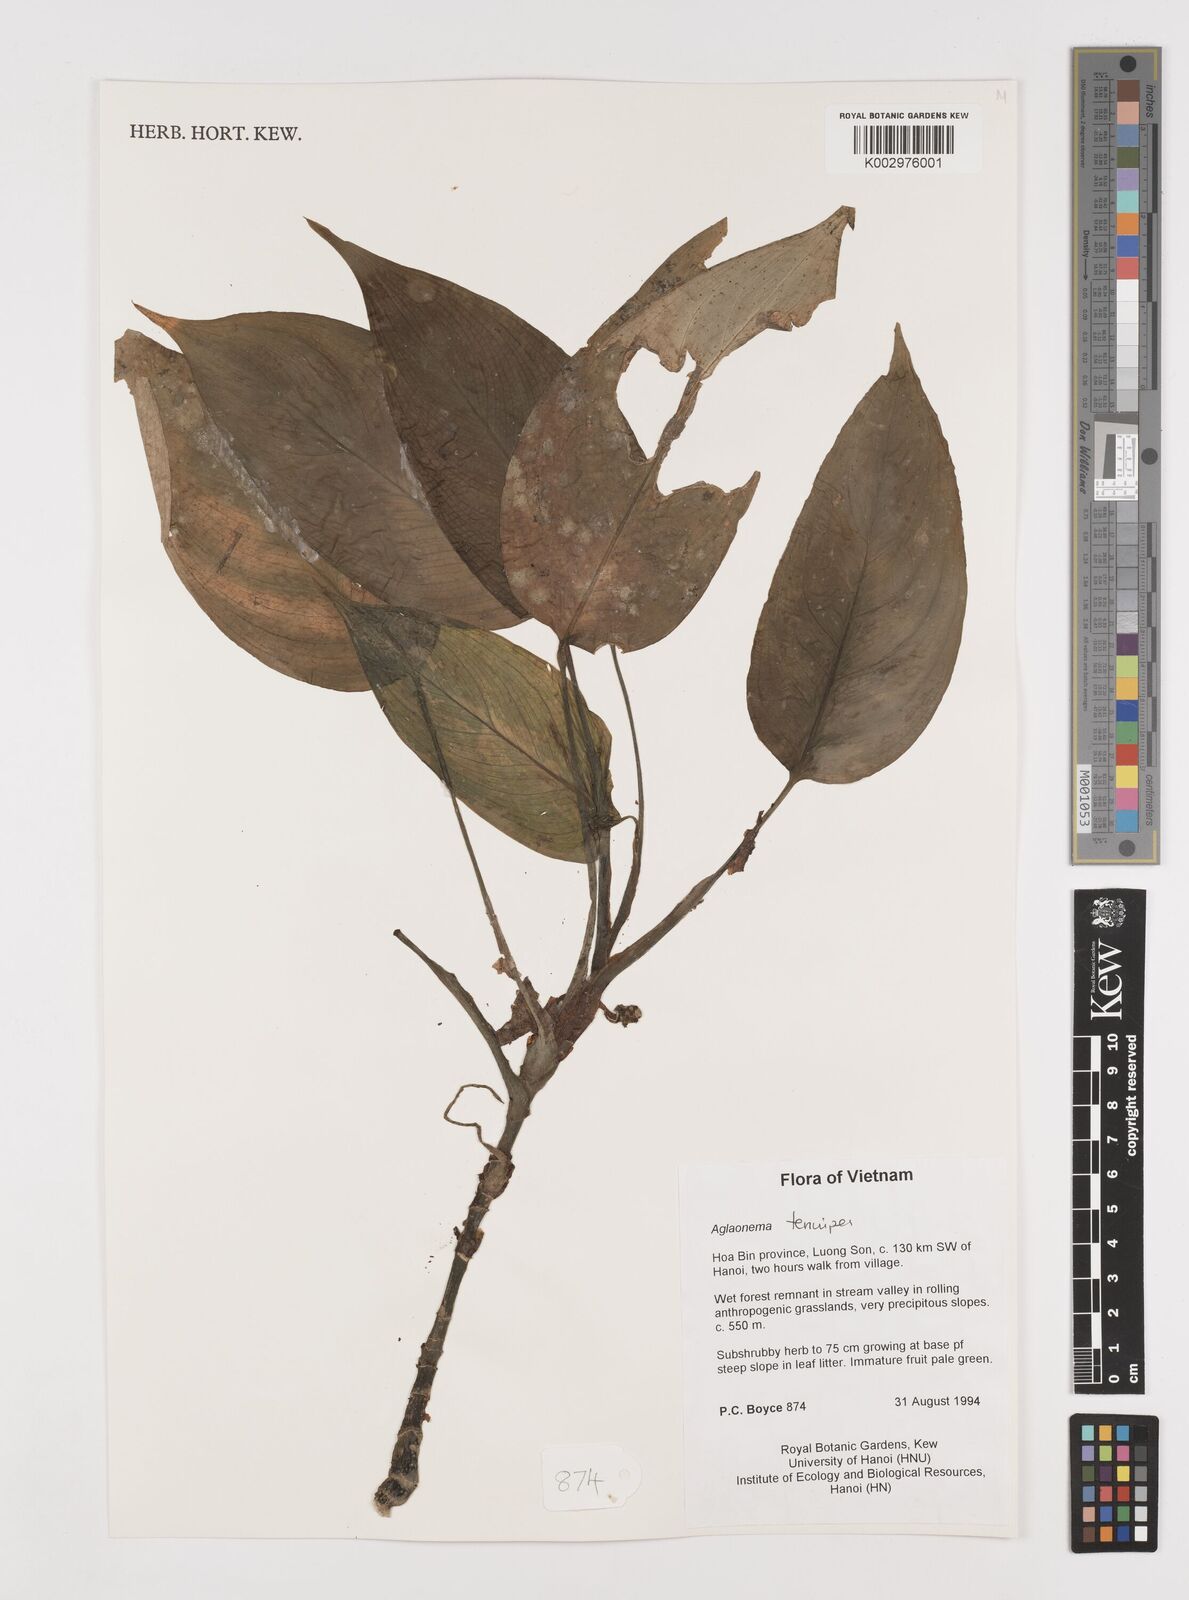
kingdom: Plantae
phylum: Tracheophyta
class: Liliopsida
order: Alismatales
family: Araceae
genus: Aglaonema
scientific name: Aglaonema simplex
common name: Malayan-sword
